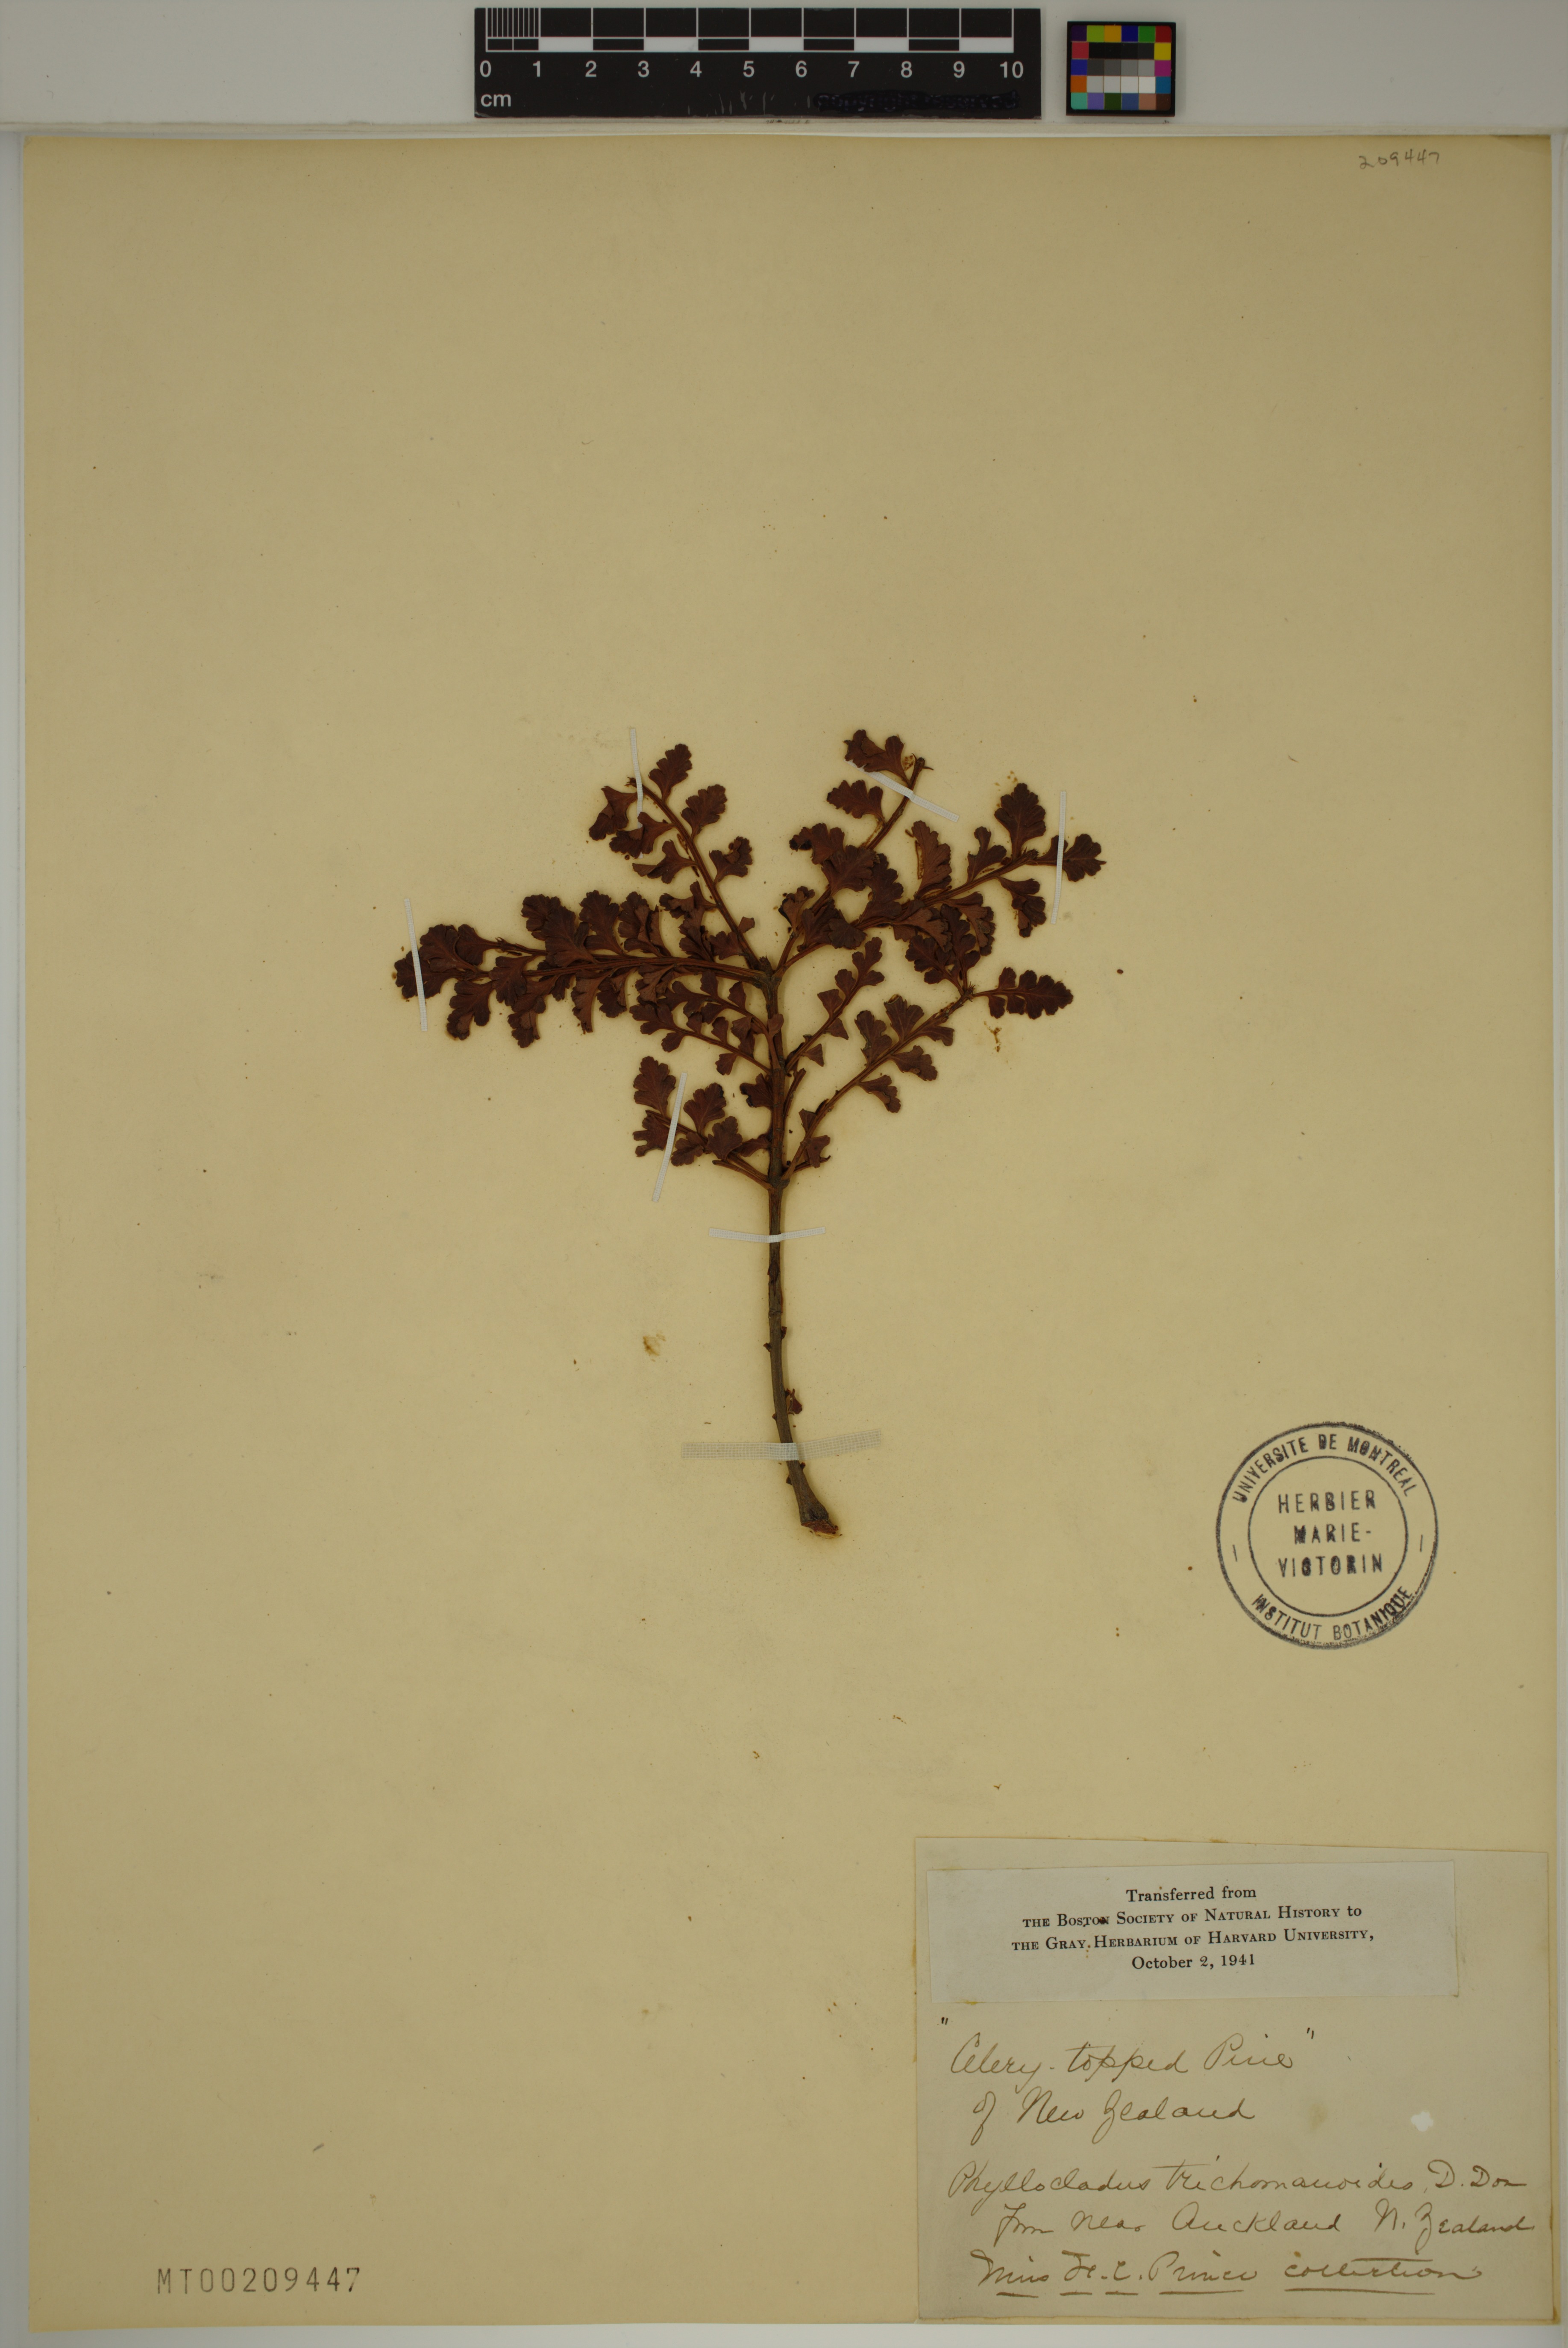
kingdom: Plantae
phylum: Tracheophyta
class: Pinopsida
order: Pinales
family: Phyllocladaceae
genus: Phyllocladus
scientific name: Phyllocladus trichomanoides
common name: Celery pine
